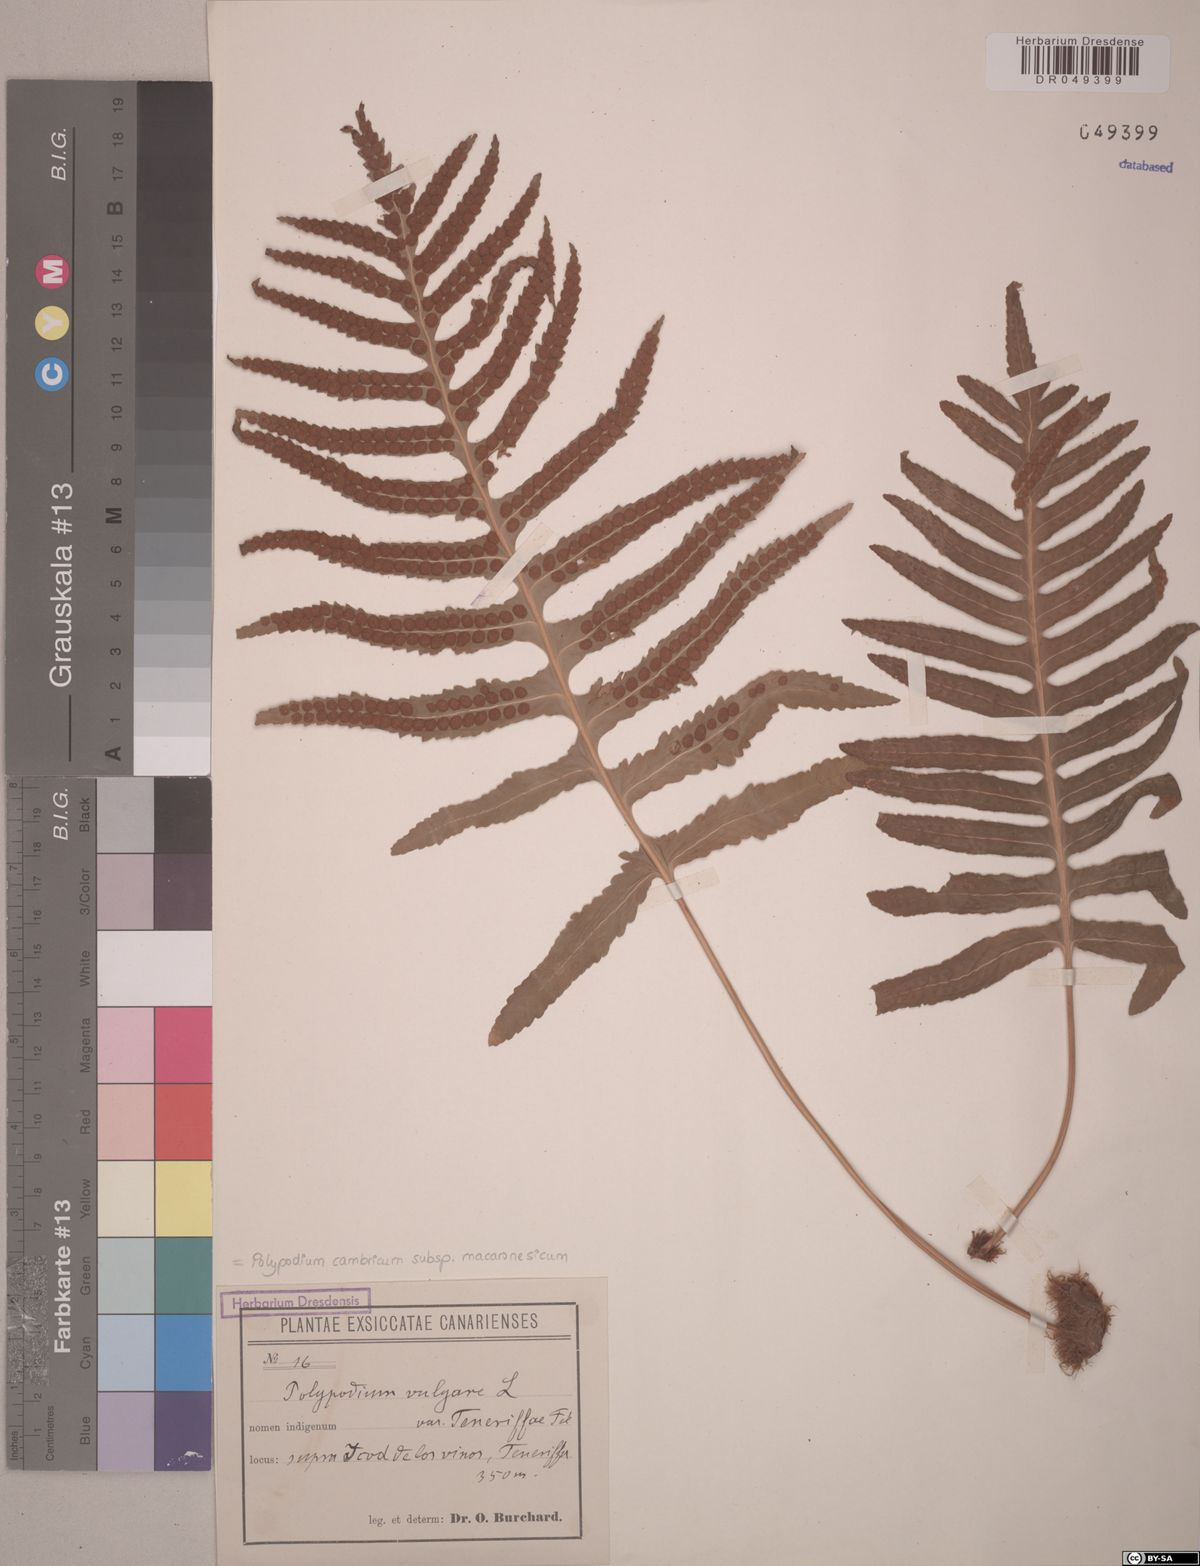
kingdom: Plantae
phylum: Tracheophyta
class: Polypodiopsida
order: Polypodiales
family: Polypodiaceae
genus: Polypodium
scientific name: Polypodium macaronesicum
